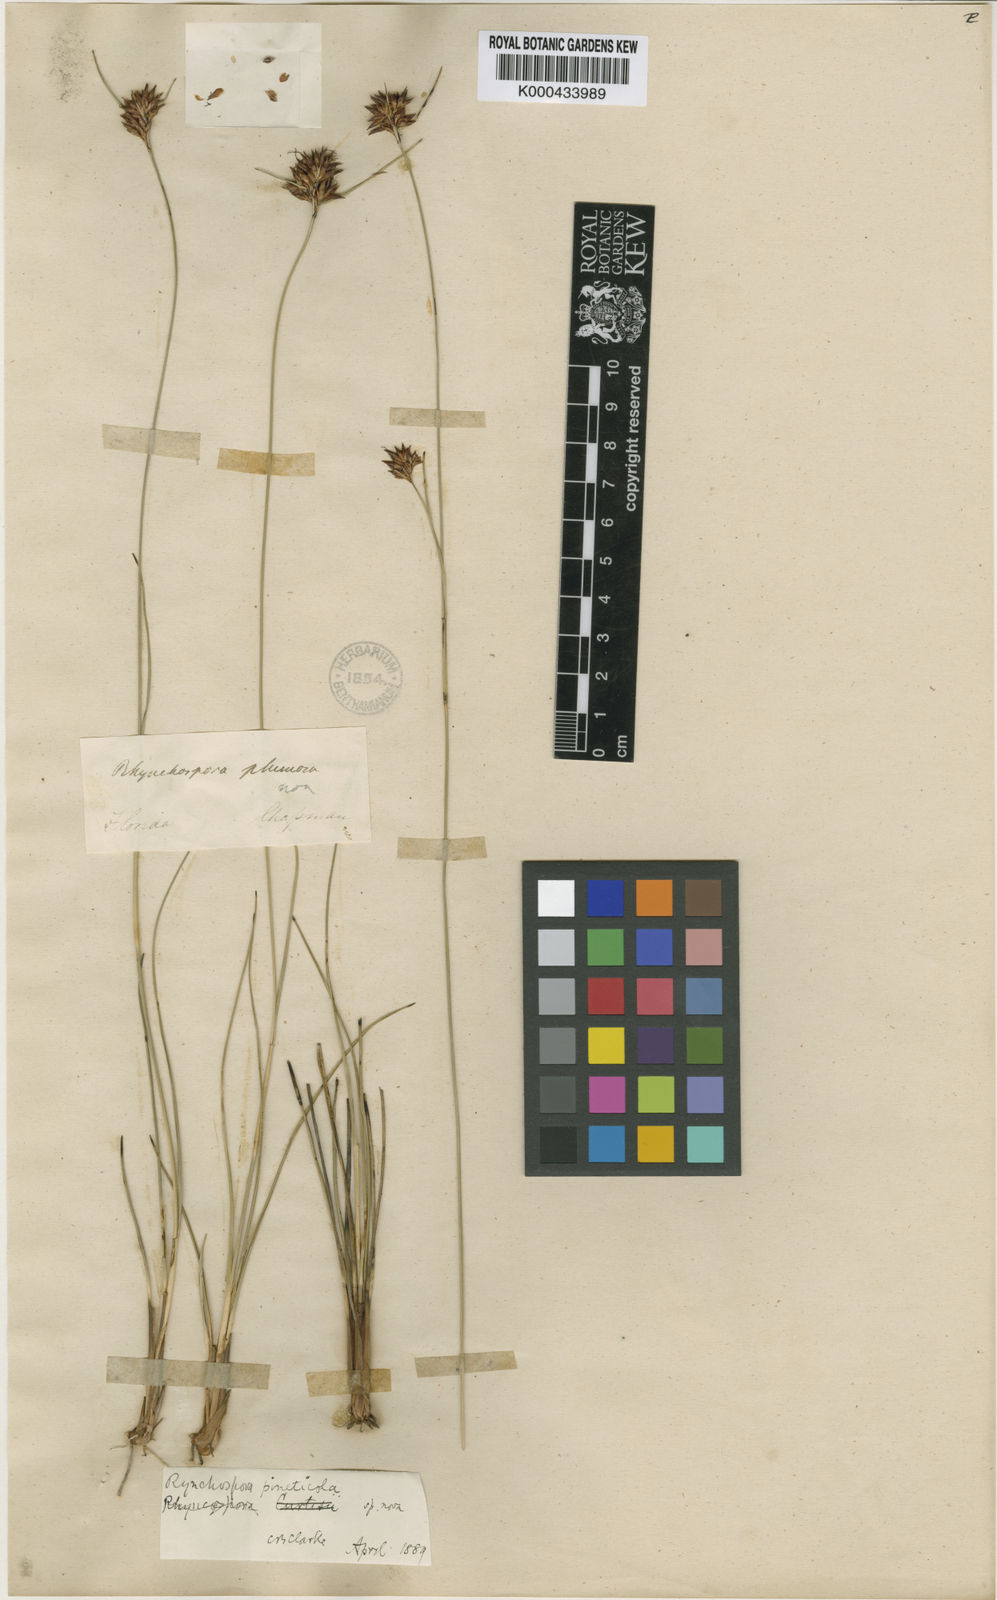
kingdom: Plantae
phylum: Tracheophyta
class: Liliopsida
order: Poales
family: Cyperaceae
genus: Rhynchospora
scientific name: Rhynchospora plumosa
